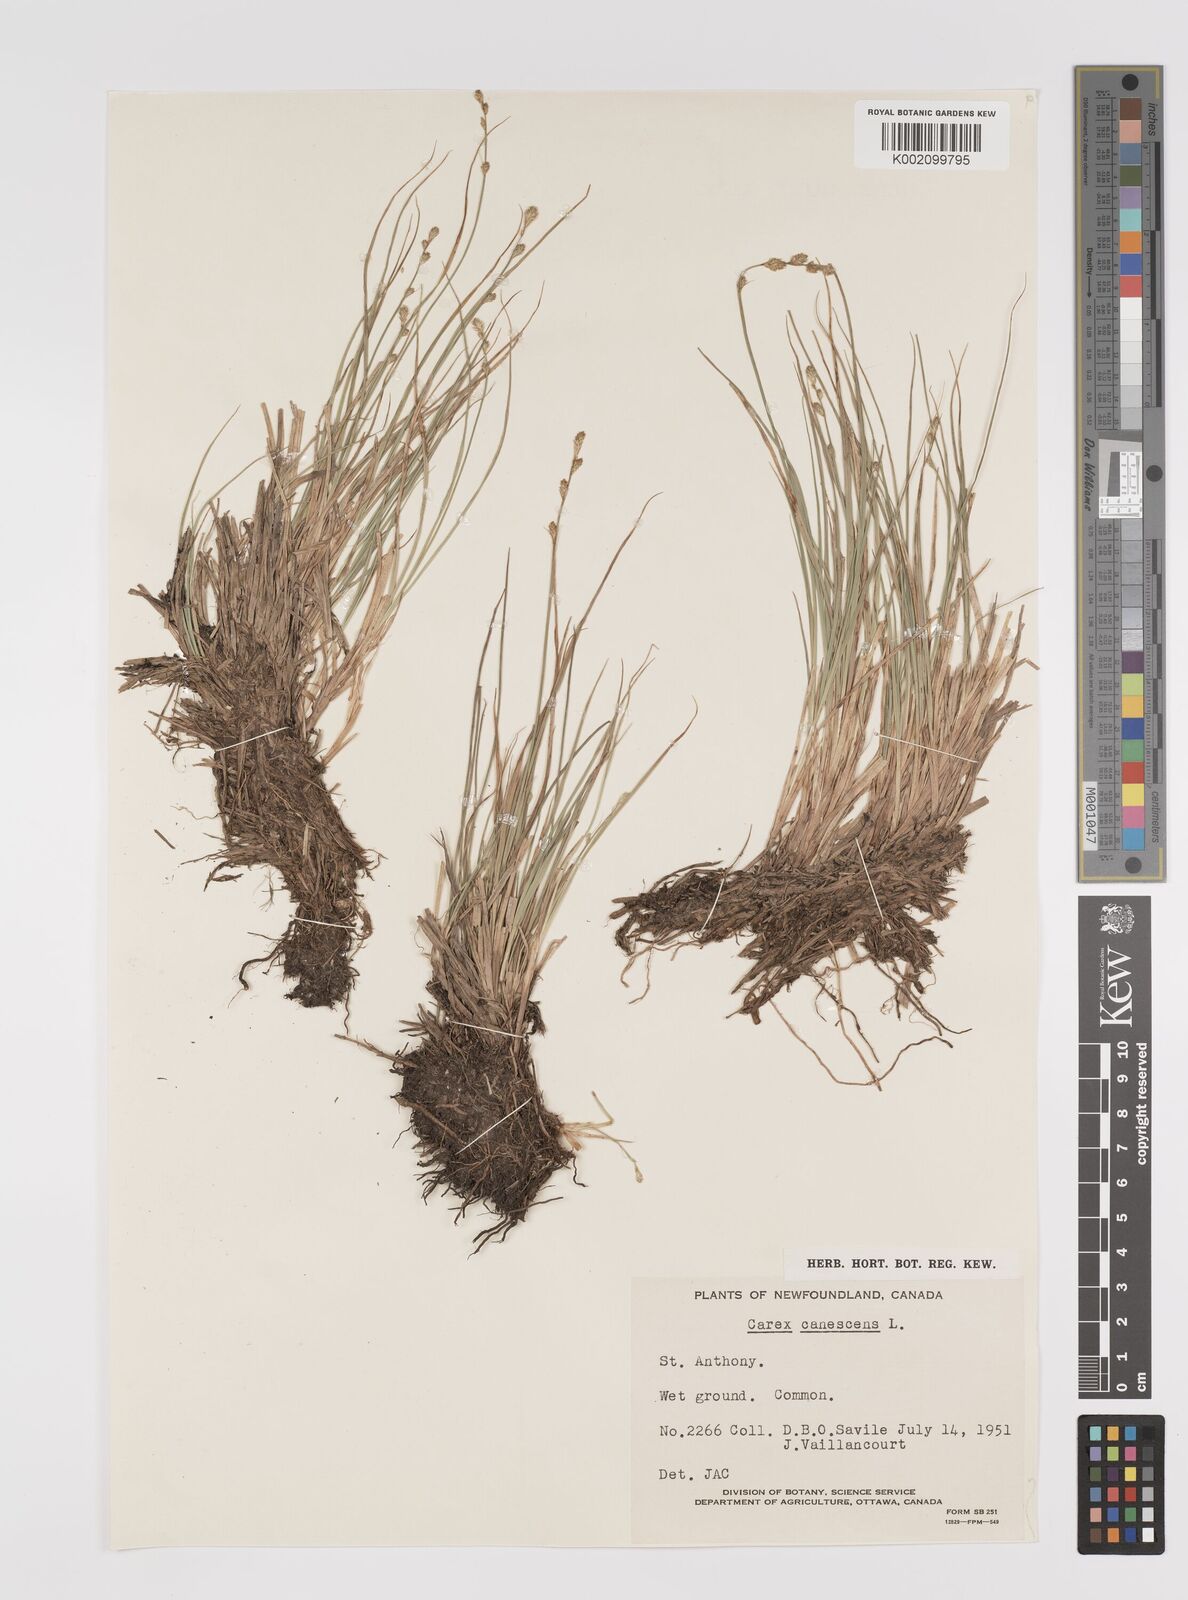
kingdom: Plantae
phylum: Tracheophyta
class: Liliopsida
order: Poales
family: Cyperaceae
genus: Carex
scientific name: Carex curta
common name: White sedge
